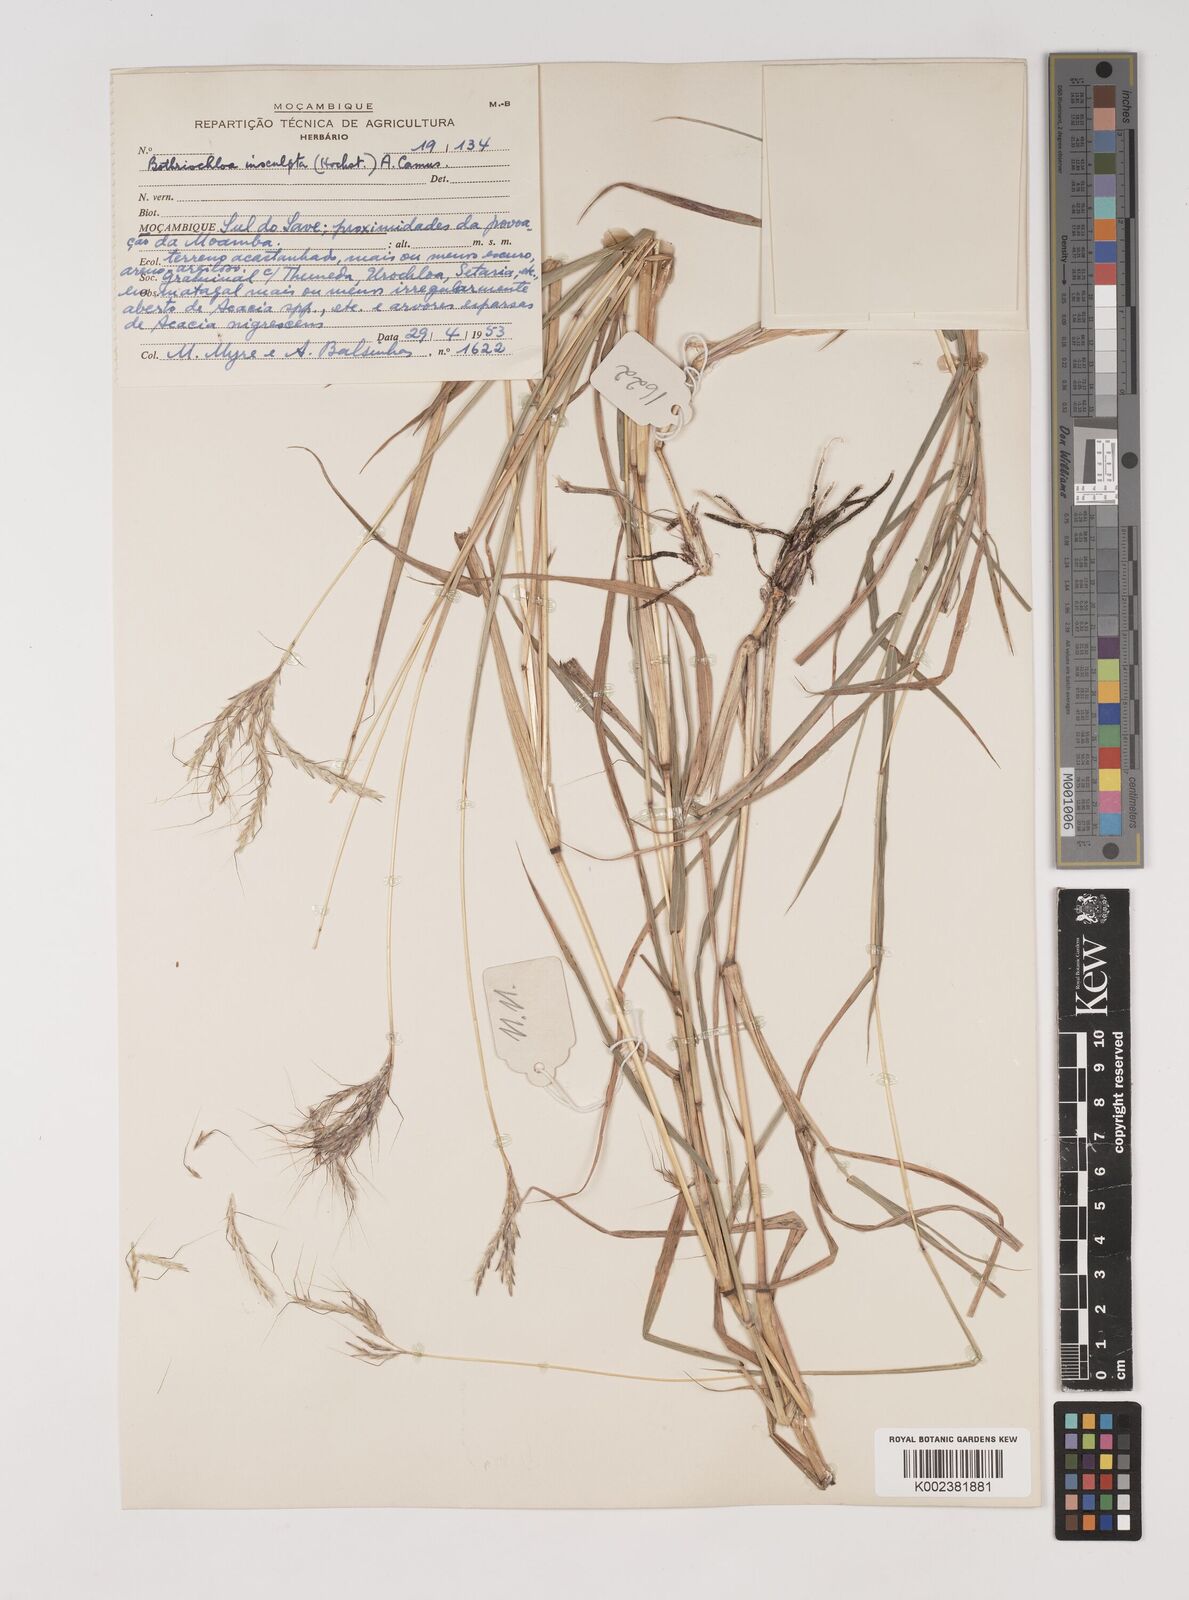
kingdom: Plantae
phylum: Tracheophyta
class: Liliopsida
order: Poales
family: Poaceae
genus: Bothriochloa
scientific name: Bothriochloa insculpta
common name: Creeping-bluegrass
